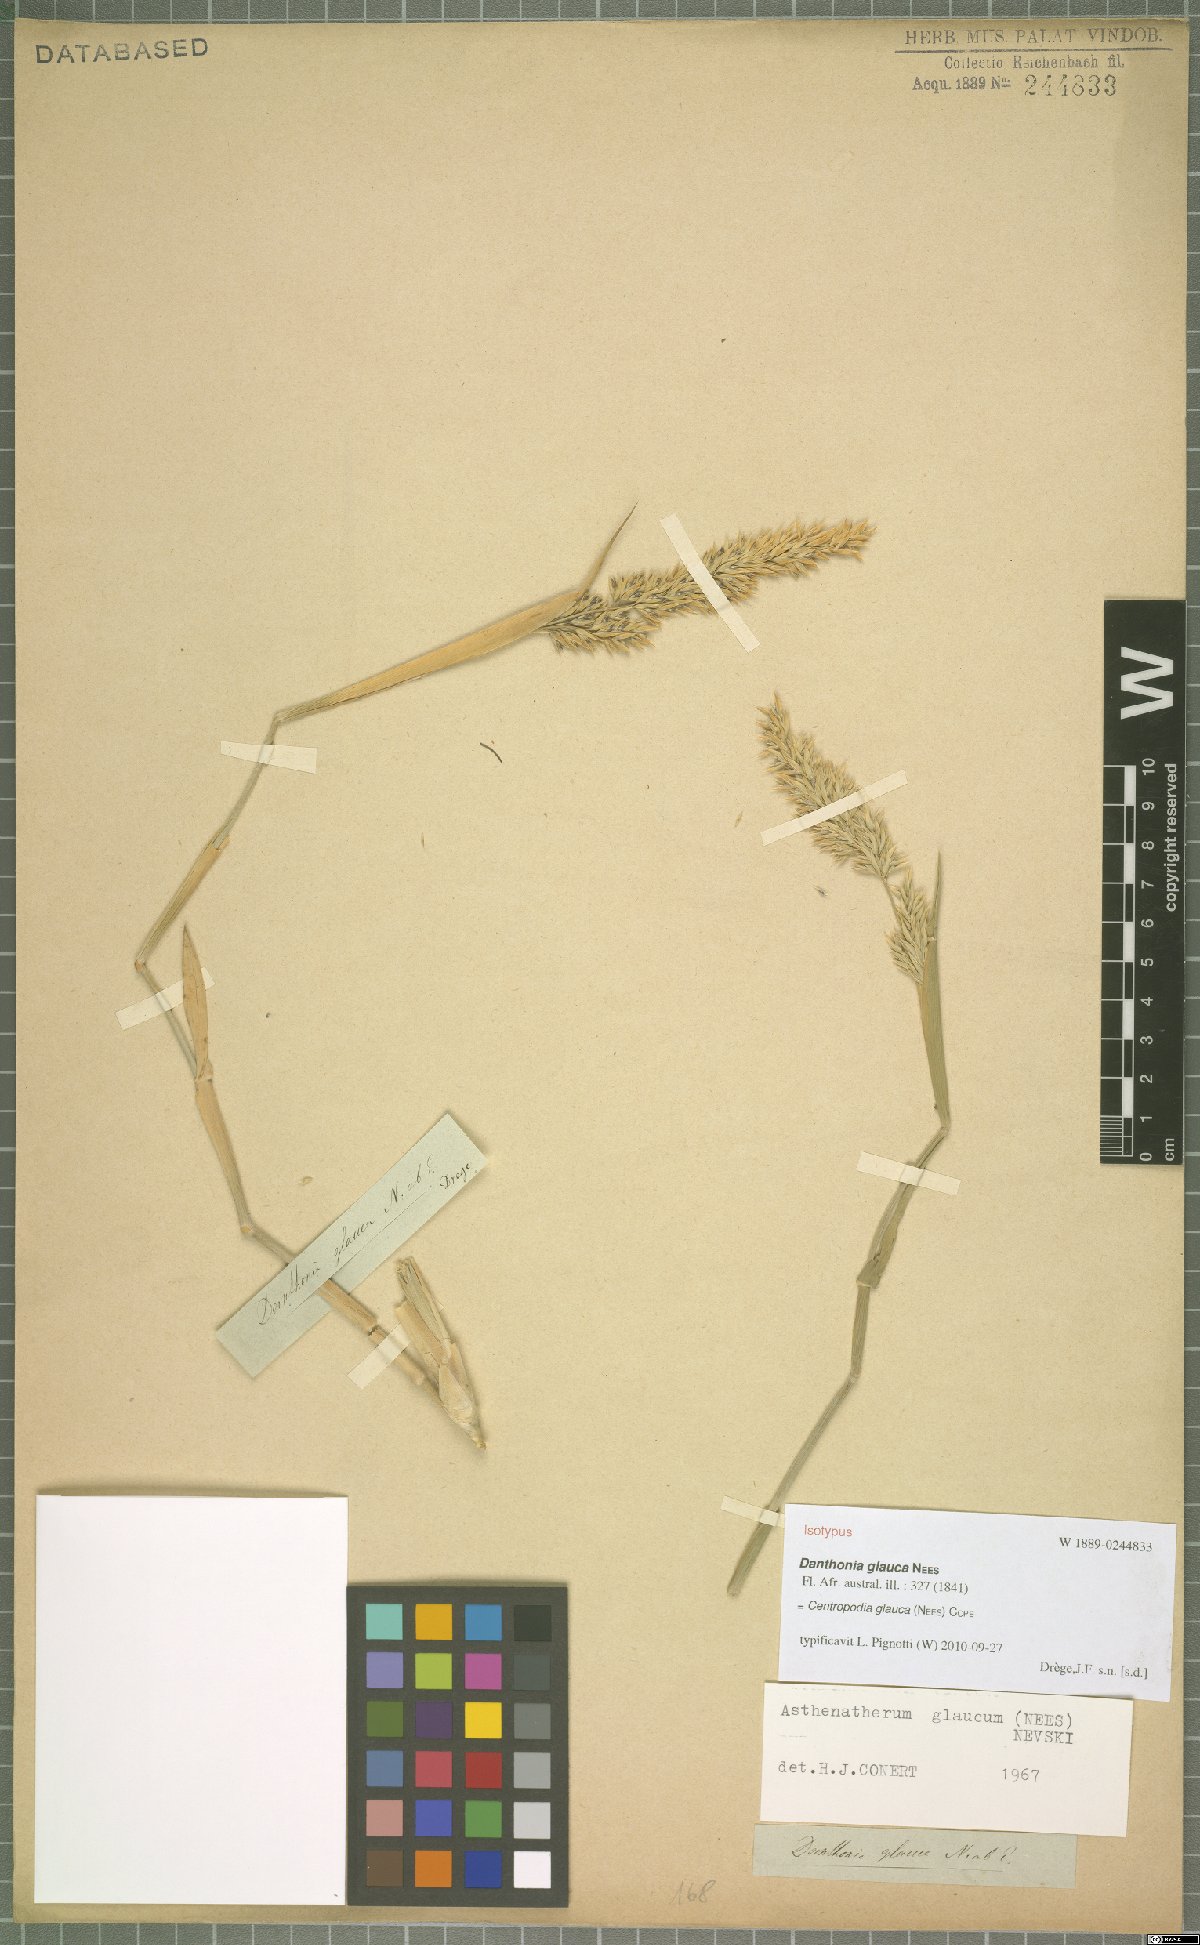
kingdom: Plantae
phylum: Tracheophyta
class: Liliopsida
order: Poales
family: Poaceae
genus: Centropodia
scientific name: Centropodia glauca
